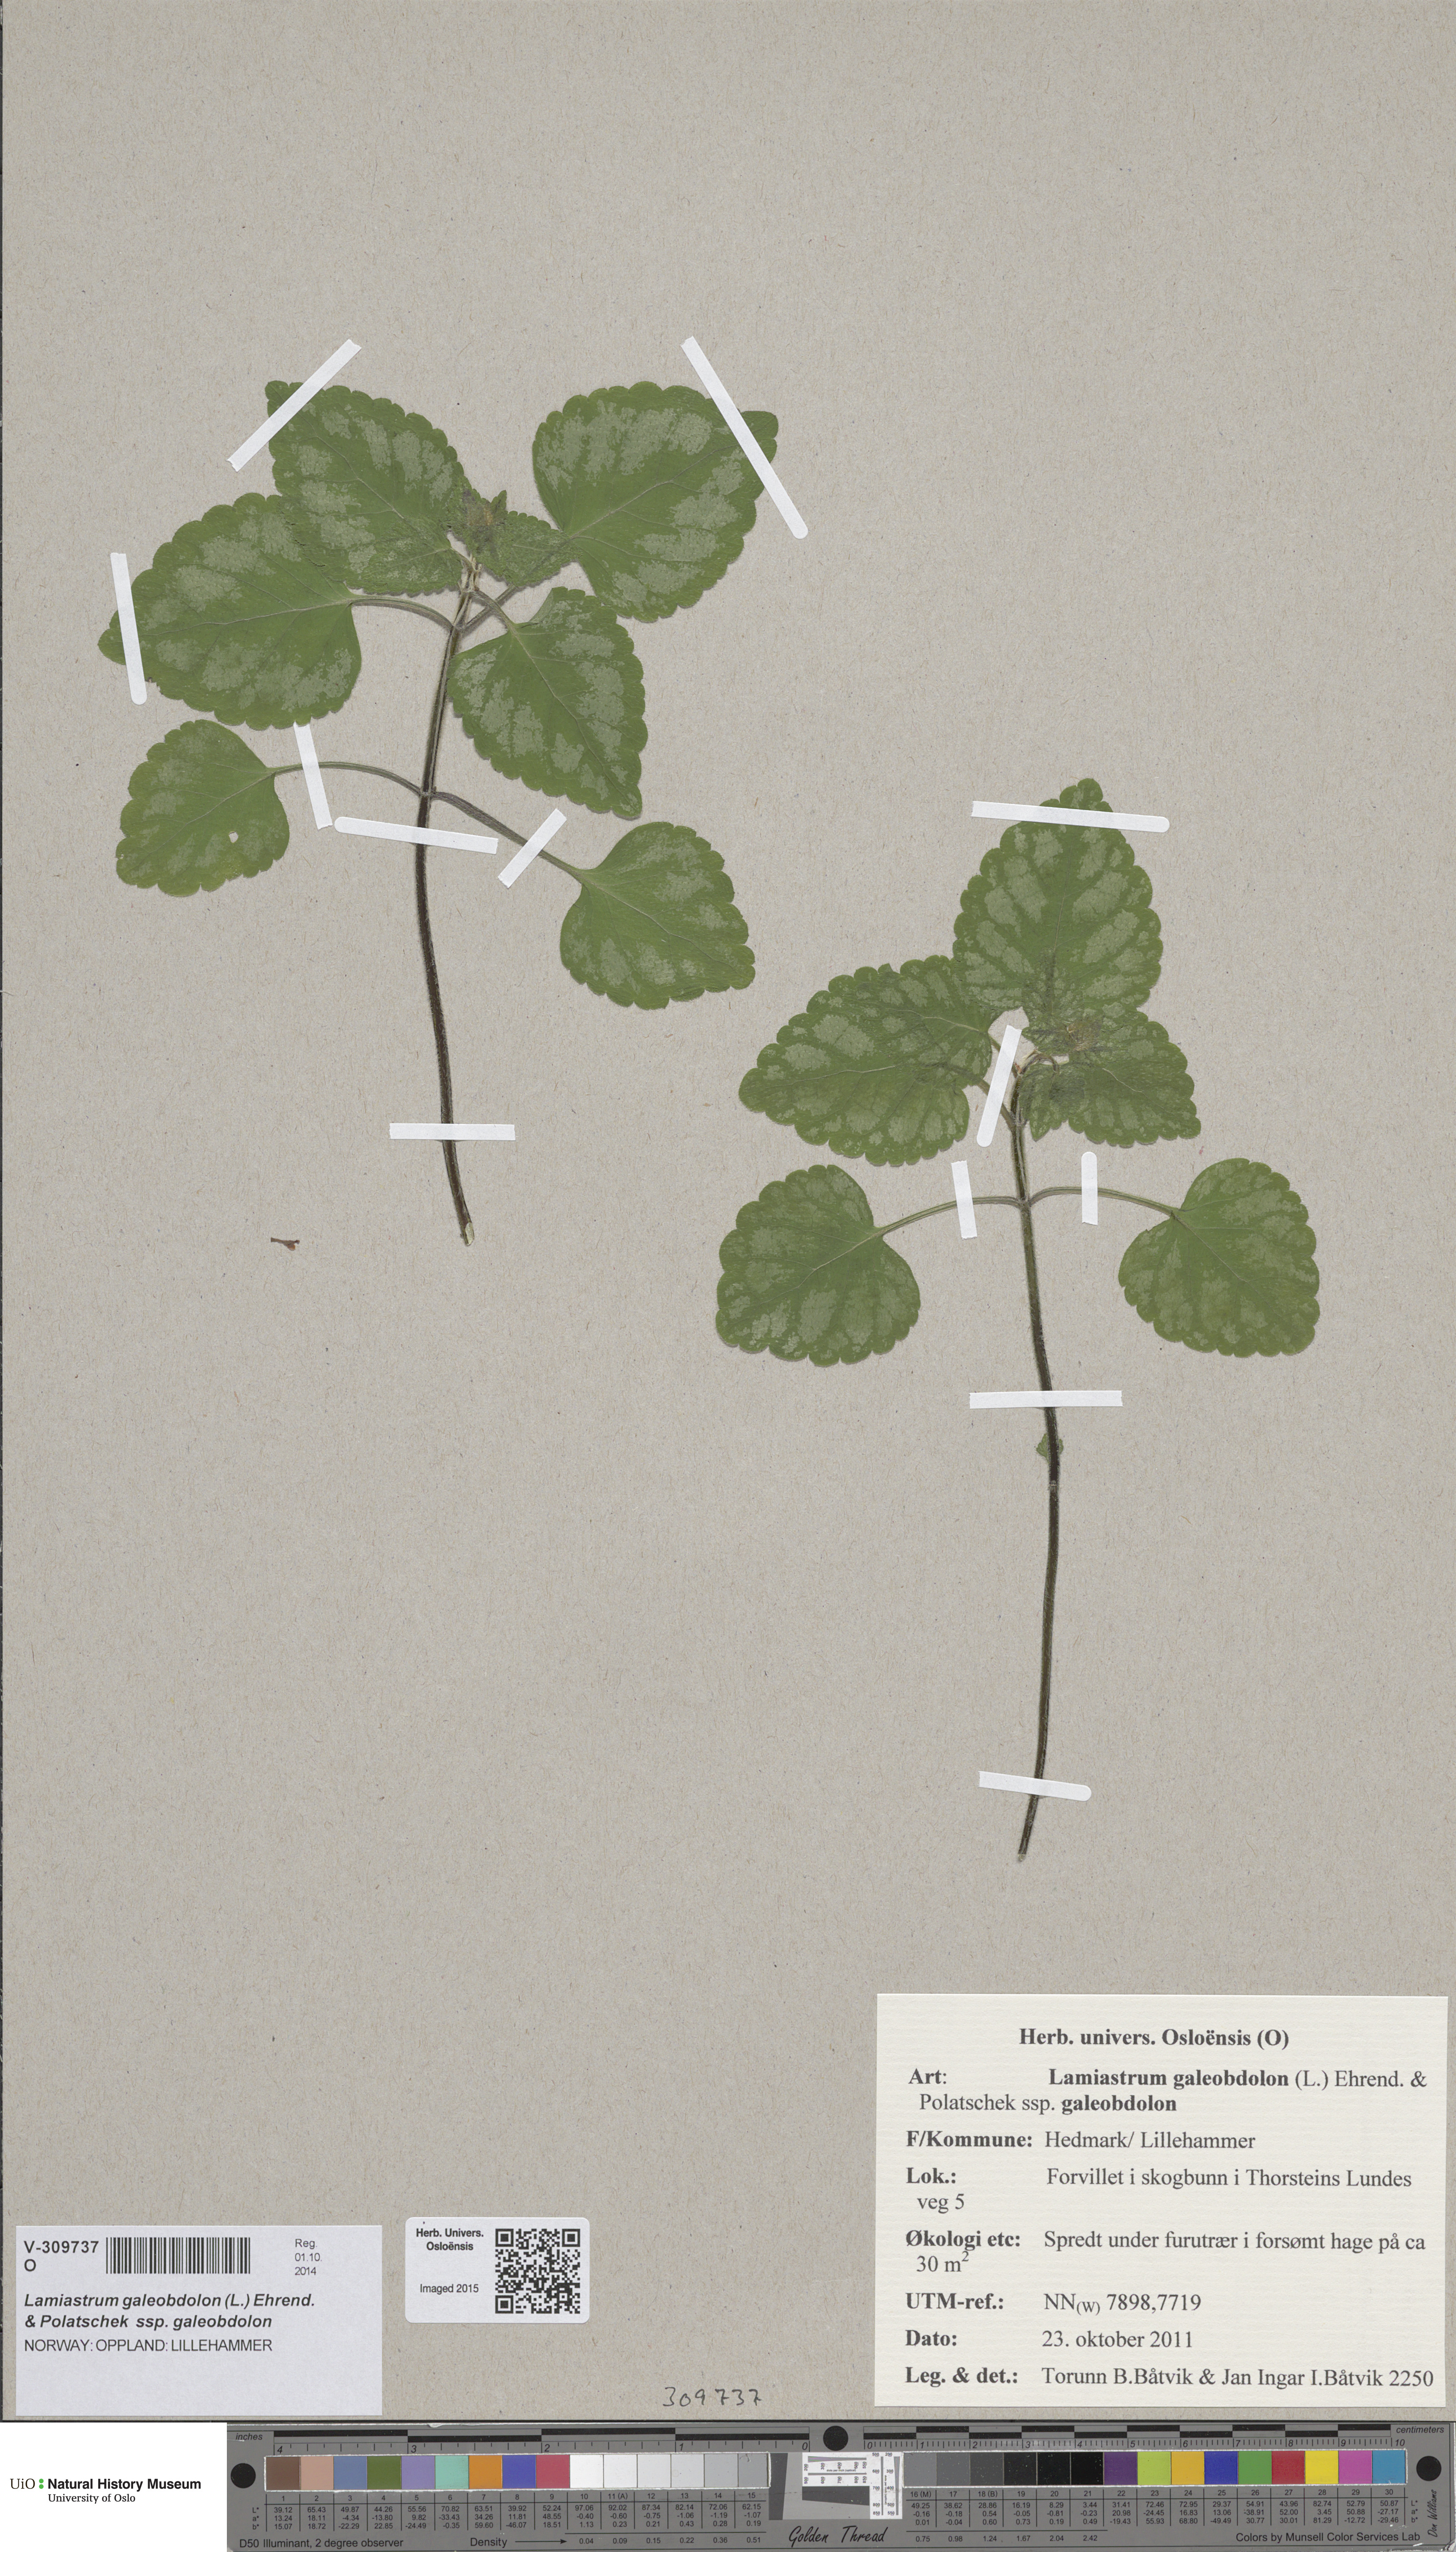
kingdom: Plantae
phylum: Tracheophyta
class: Magnoliopsida
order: Lamiales
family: Lamiaceae
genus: Lamium
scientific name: Lamium galeobdolon
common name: Yellow archangel
